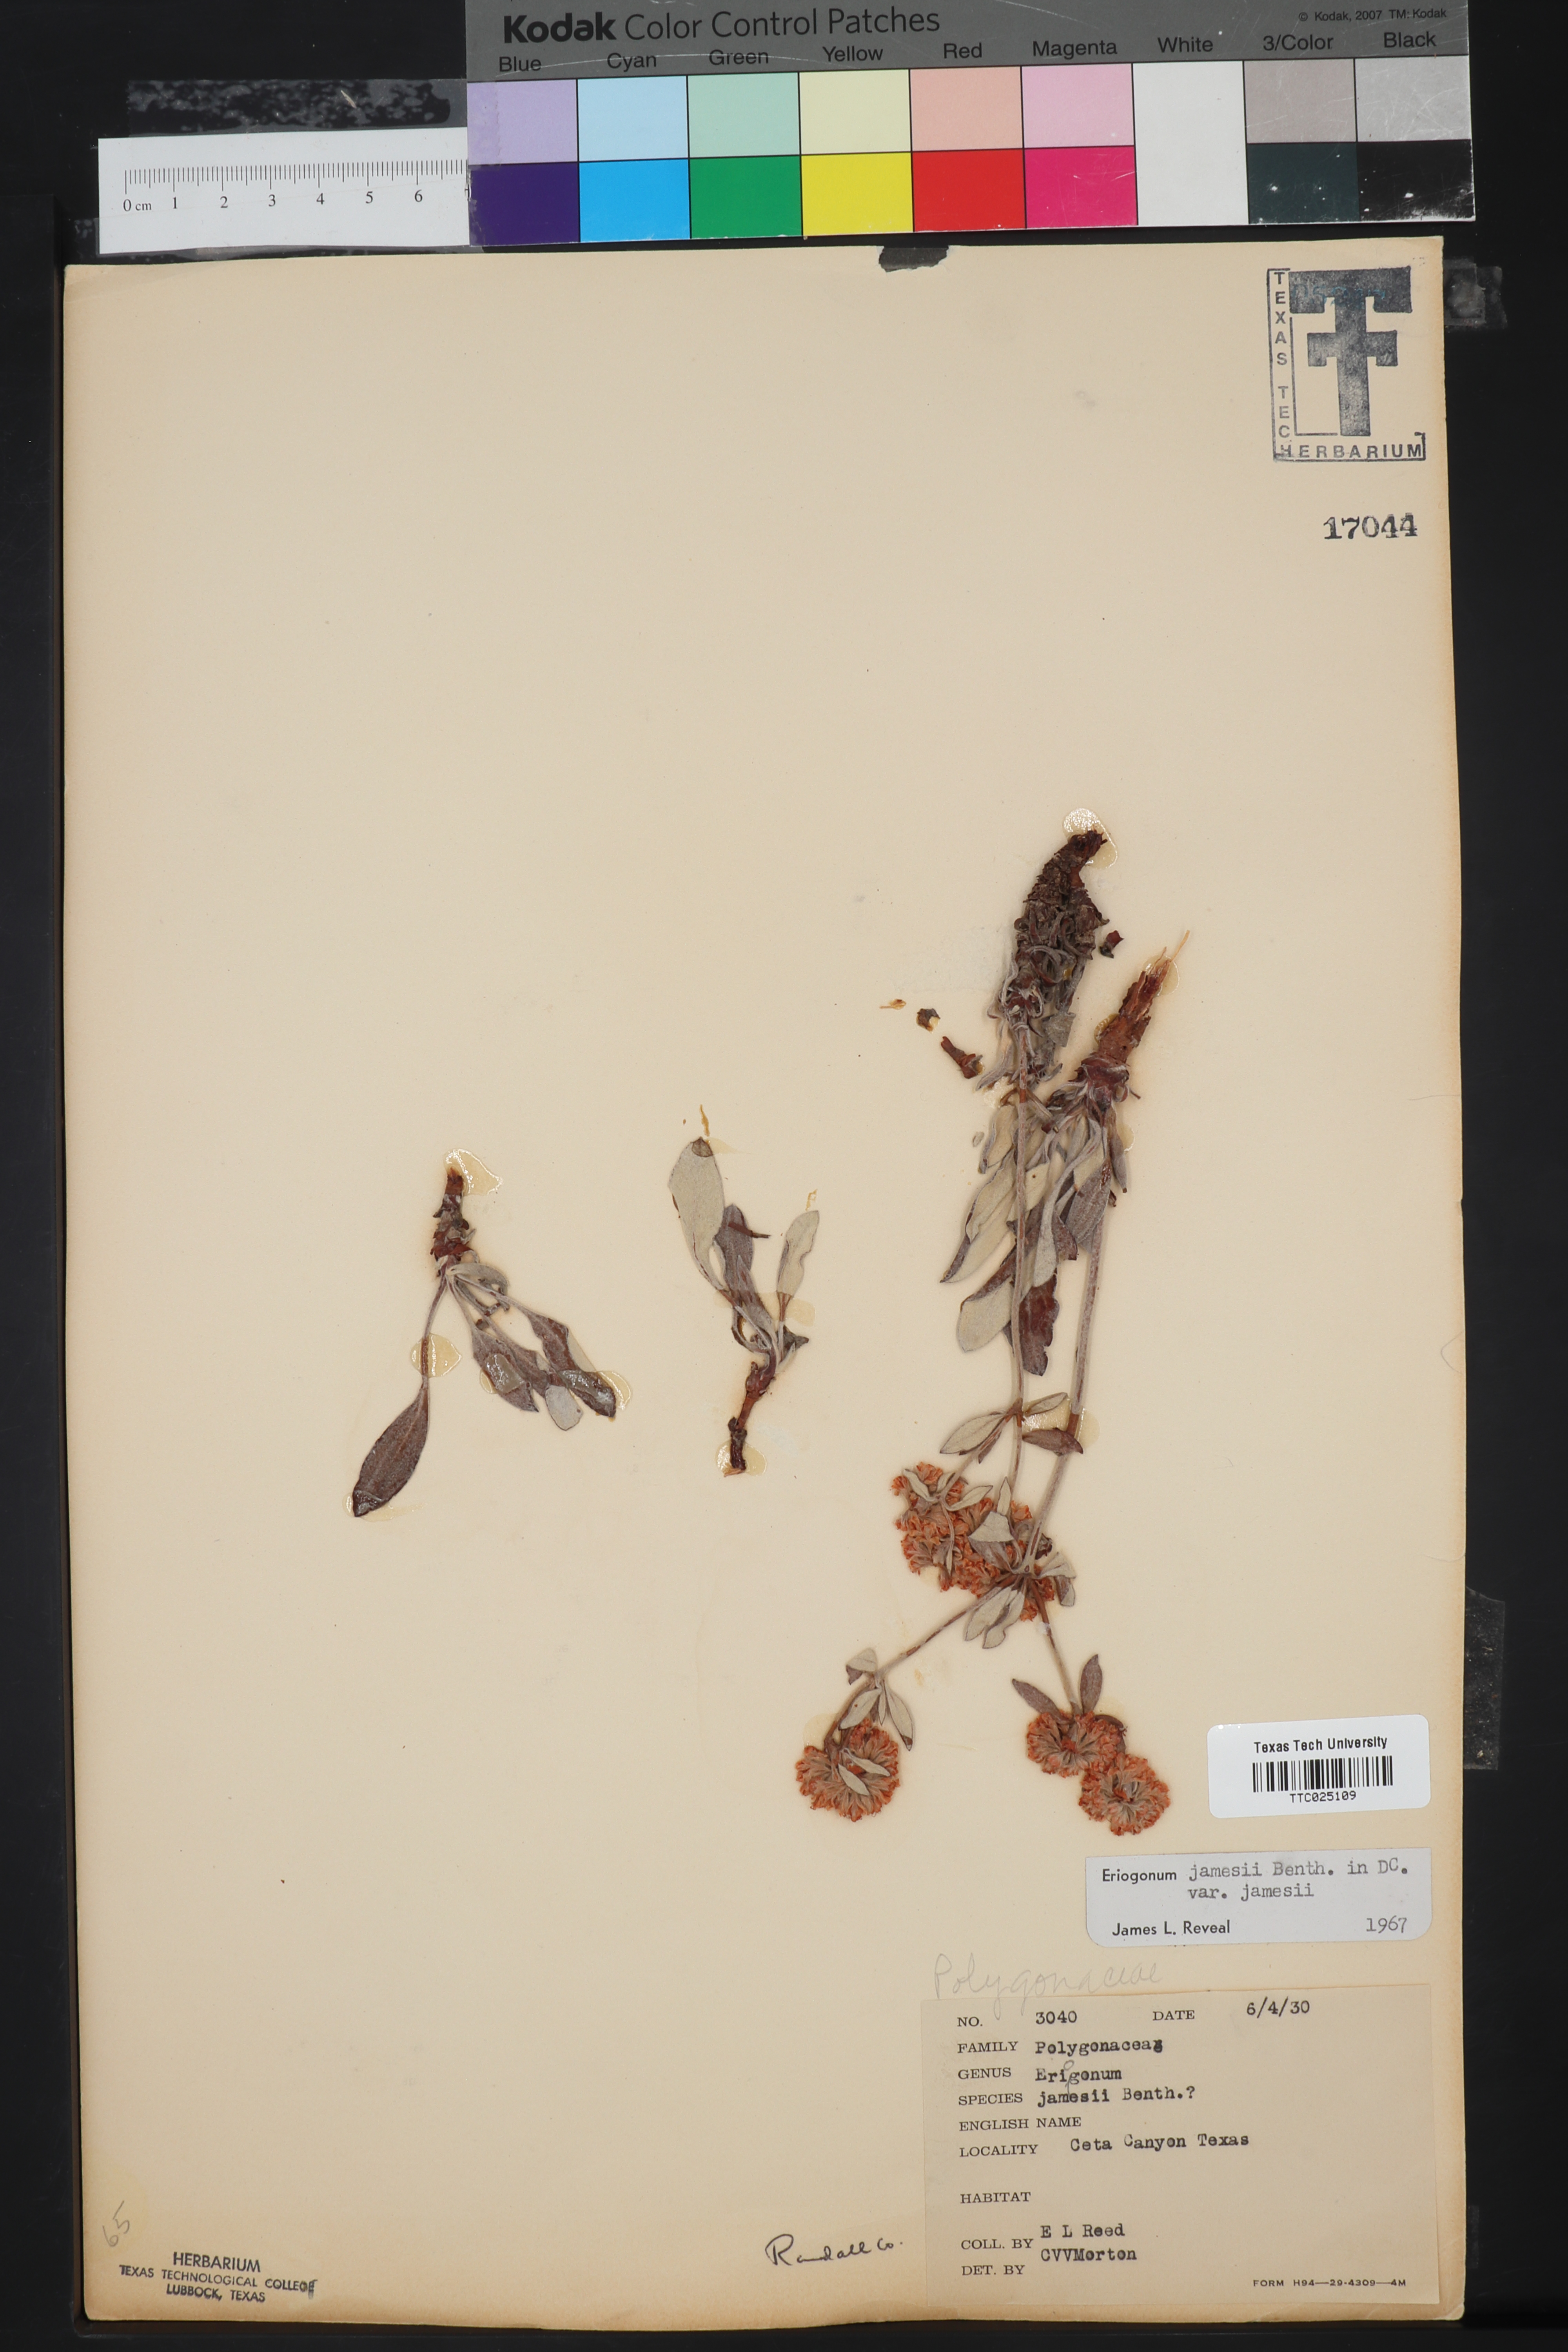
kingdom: Plantae
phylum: Tracheophyta
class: Magnoliopsida
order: Caryophyllales
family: Polygonaceae
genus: Eriogonum
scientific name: Eriogonum jamesii
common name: Antelope-sage
